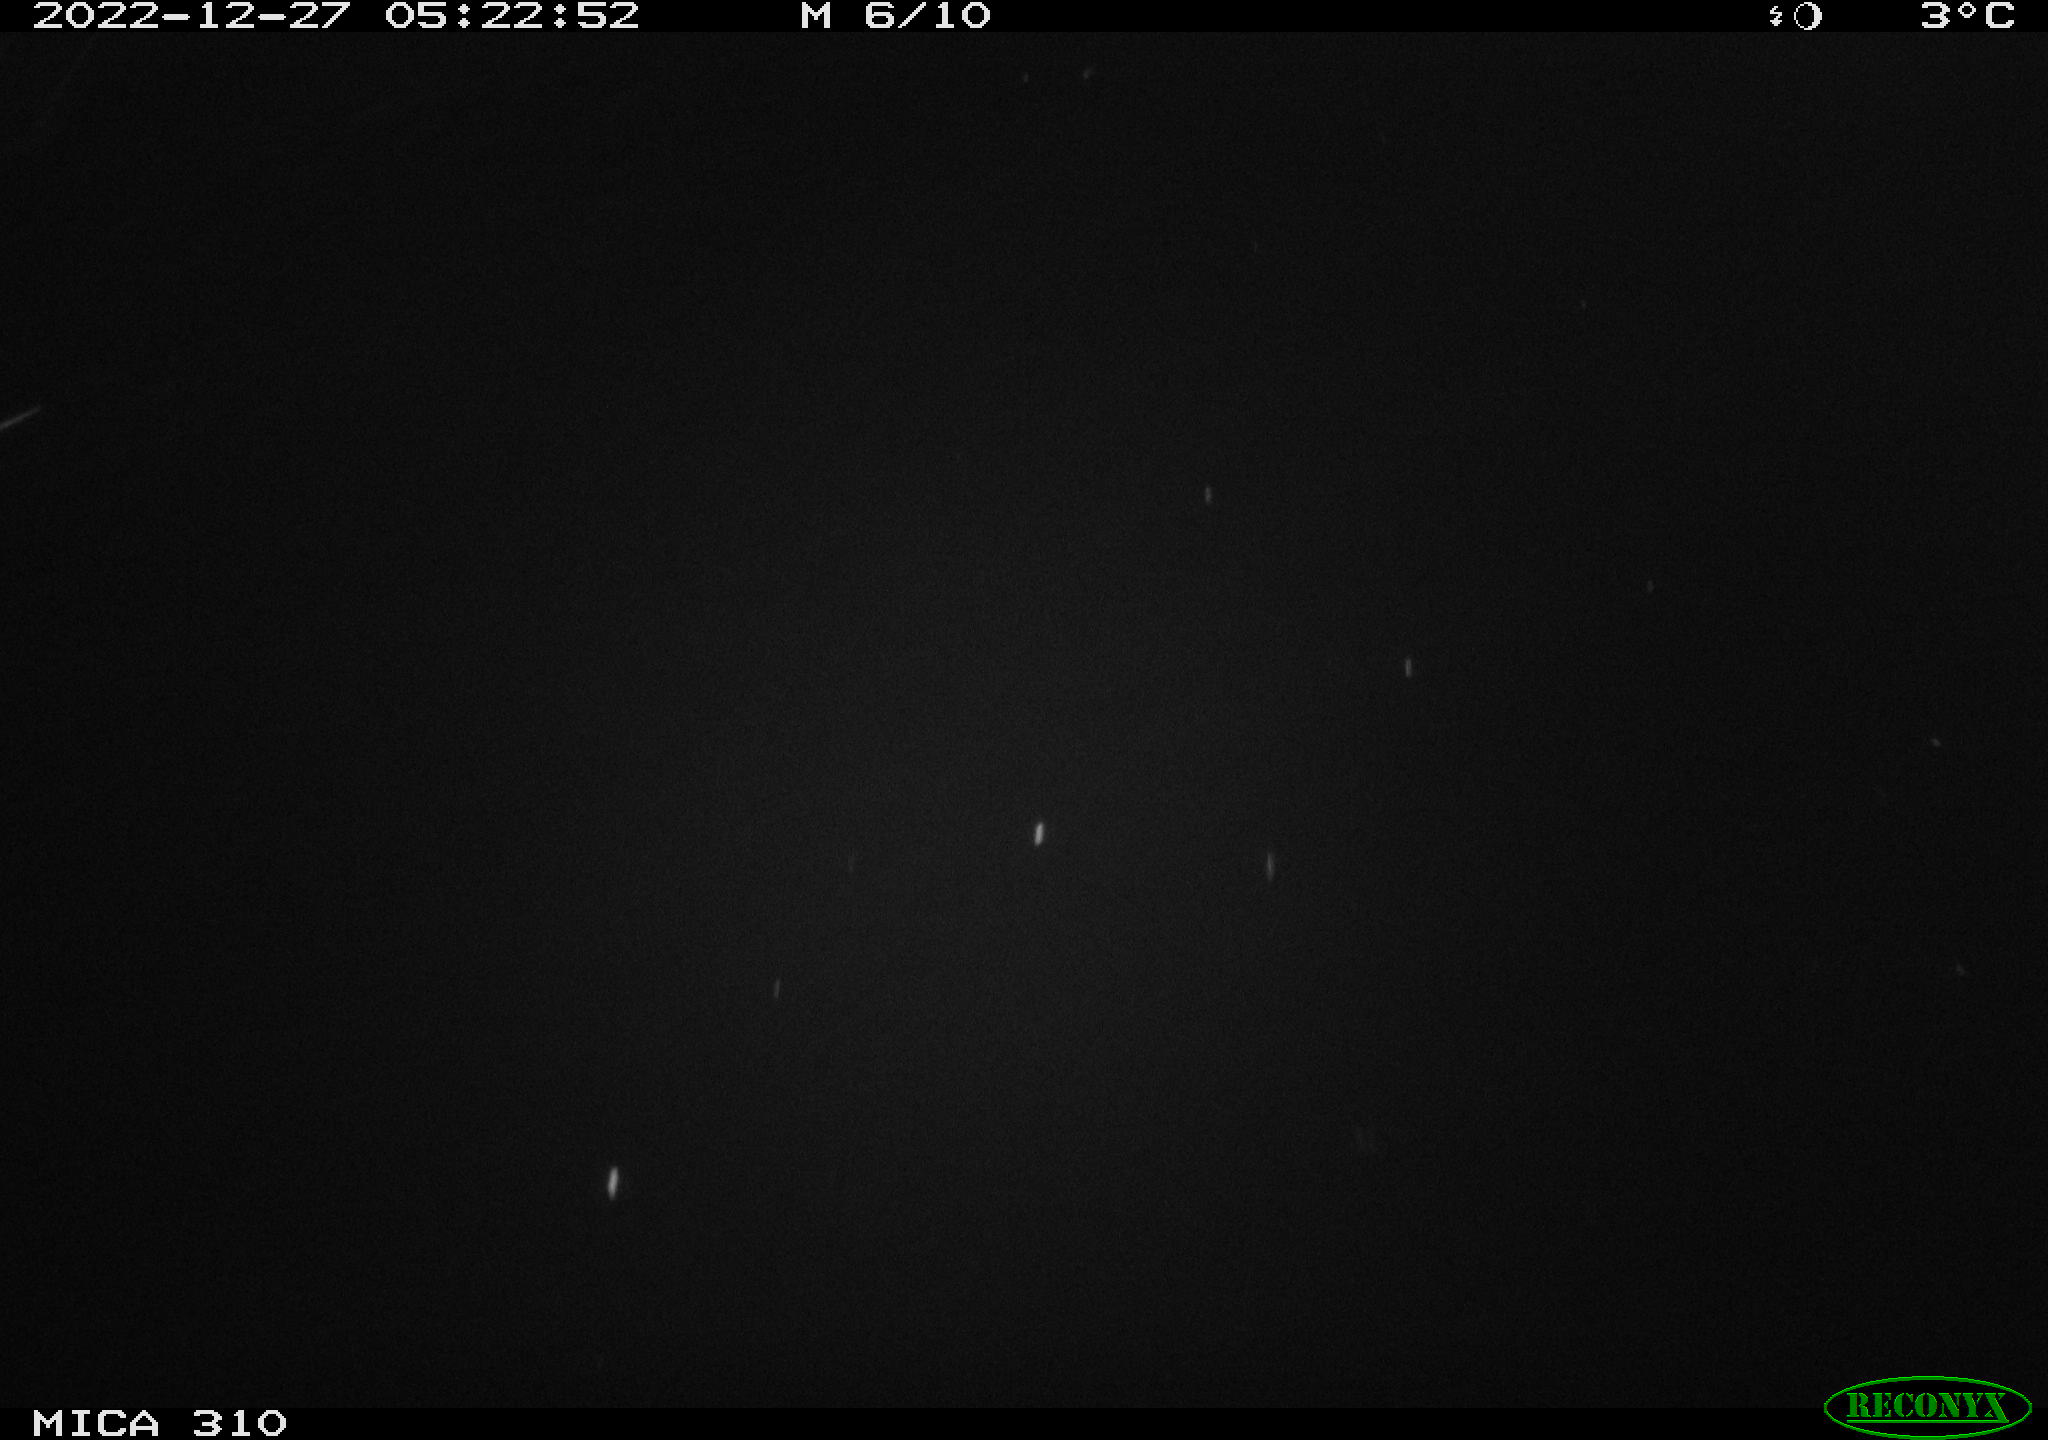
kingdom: Animalia
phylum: Chordata
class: Mammalia
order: Rodentia
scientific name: Rodentia
